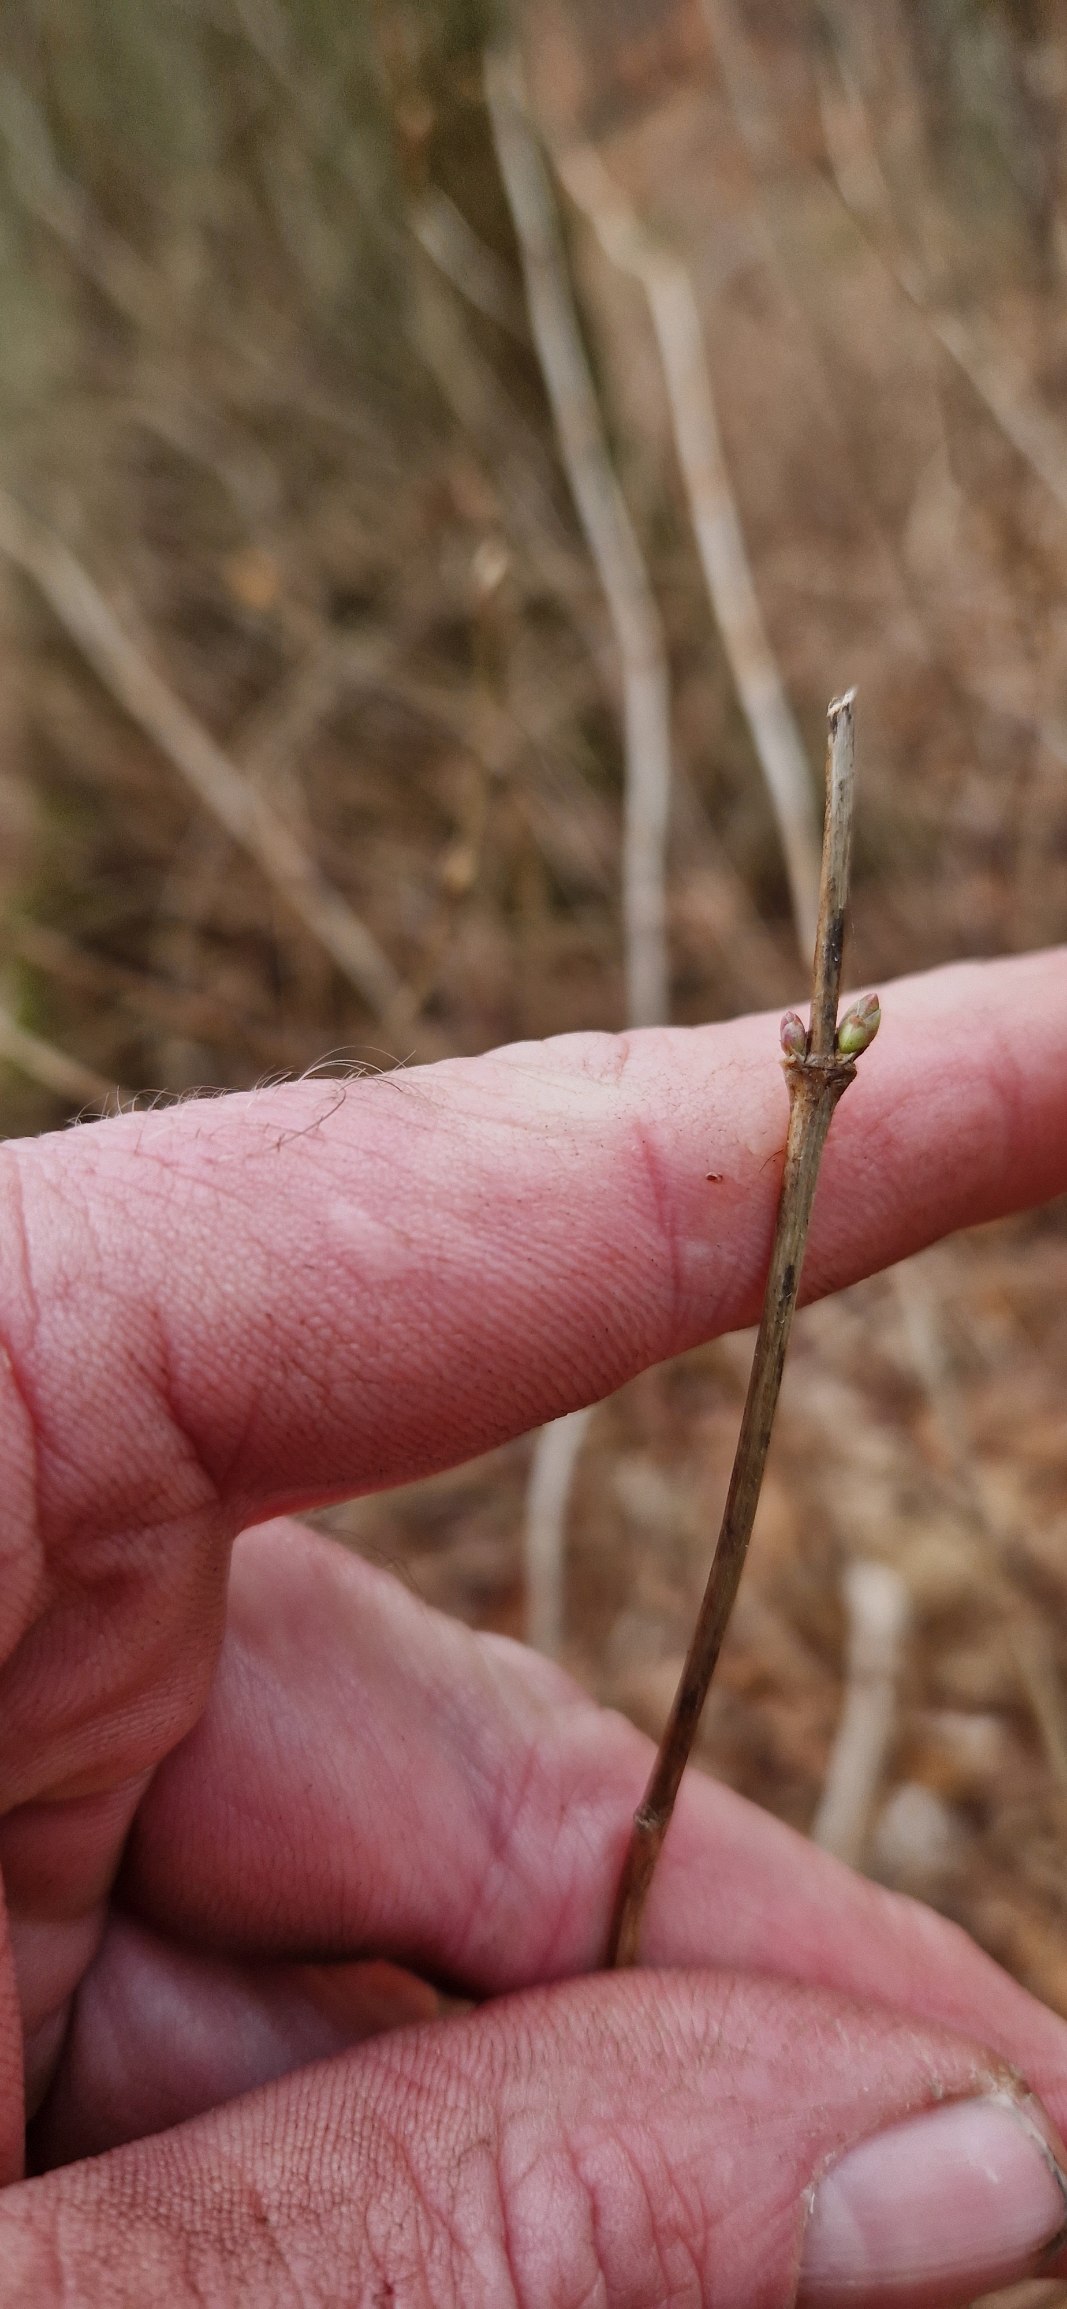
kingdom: Plantae
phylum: Tracheophyta
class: Magnoliopsida
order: Dipsacales
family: Caprifoliaceae
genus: Symphoricarpos
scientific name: Symphoricarpos albus
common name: Almindelig snebær
